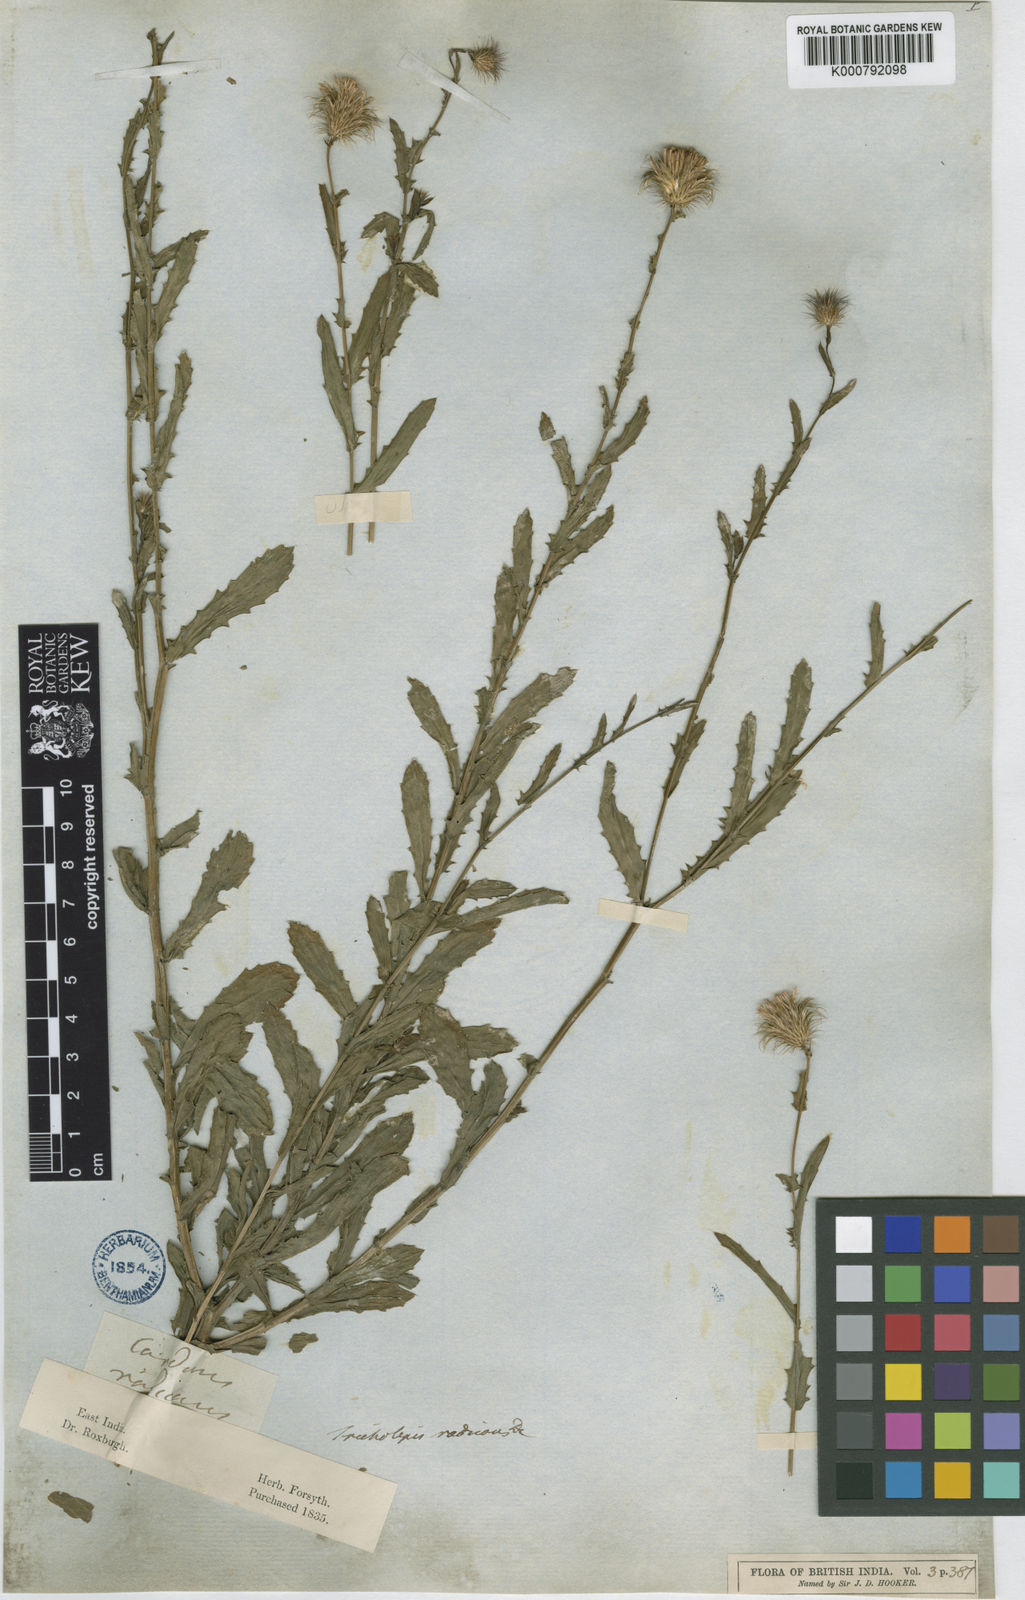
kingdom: Plantae
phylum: Tracheophyta
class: Magnoliopsida
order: Asterales
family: Asteraceae
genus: Tricholepis
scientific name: Tricholepis radicans
